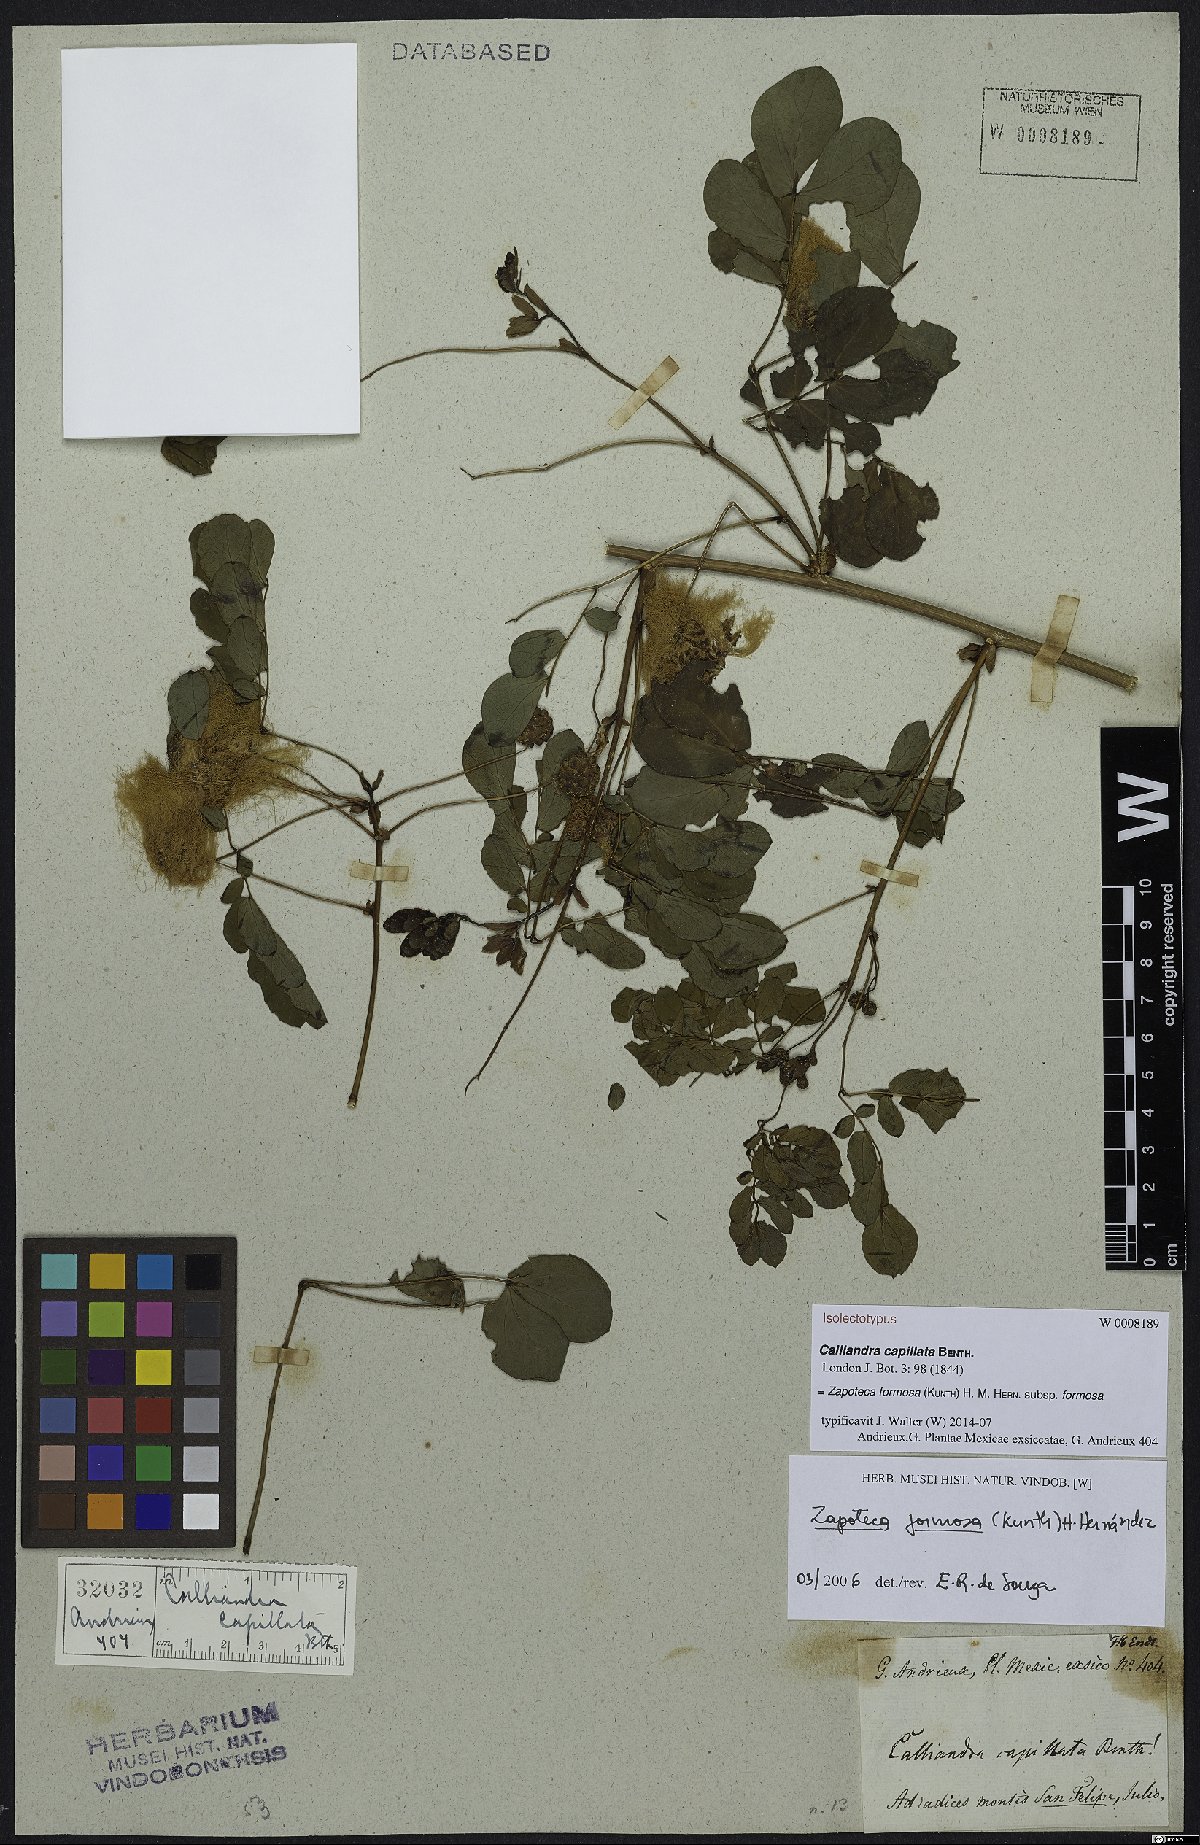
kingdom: Plantae
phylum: Tracheophyta
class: Magnoliopsida
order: Fabales
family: Fabaceae
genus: Zapoteca
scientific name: Zapoteca formosa
